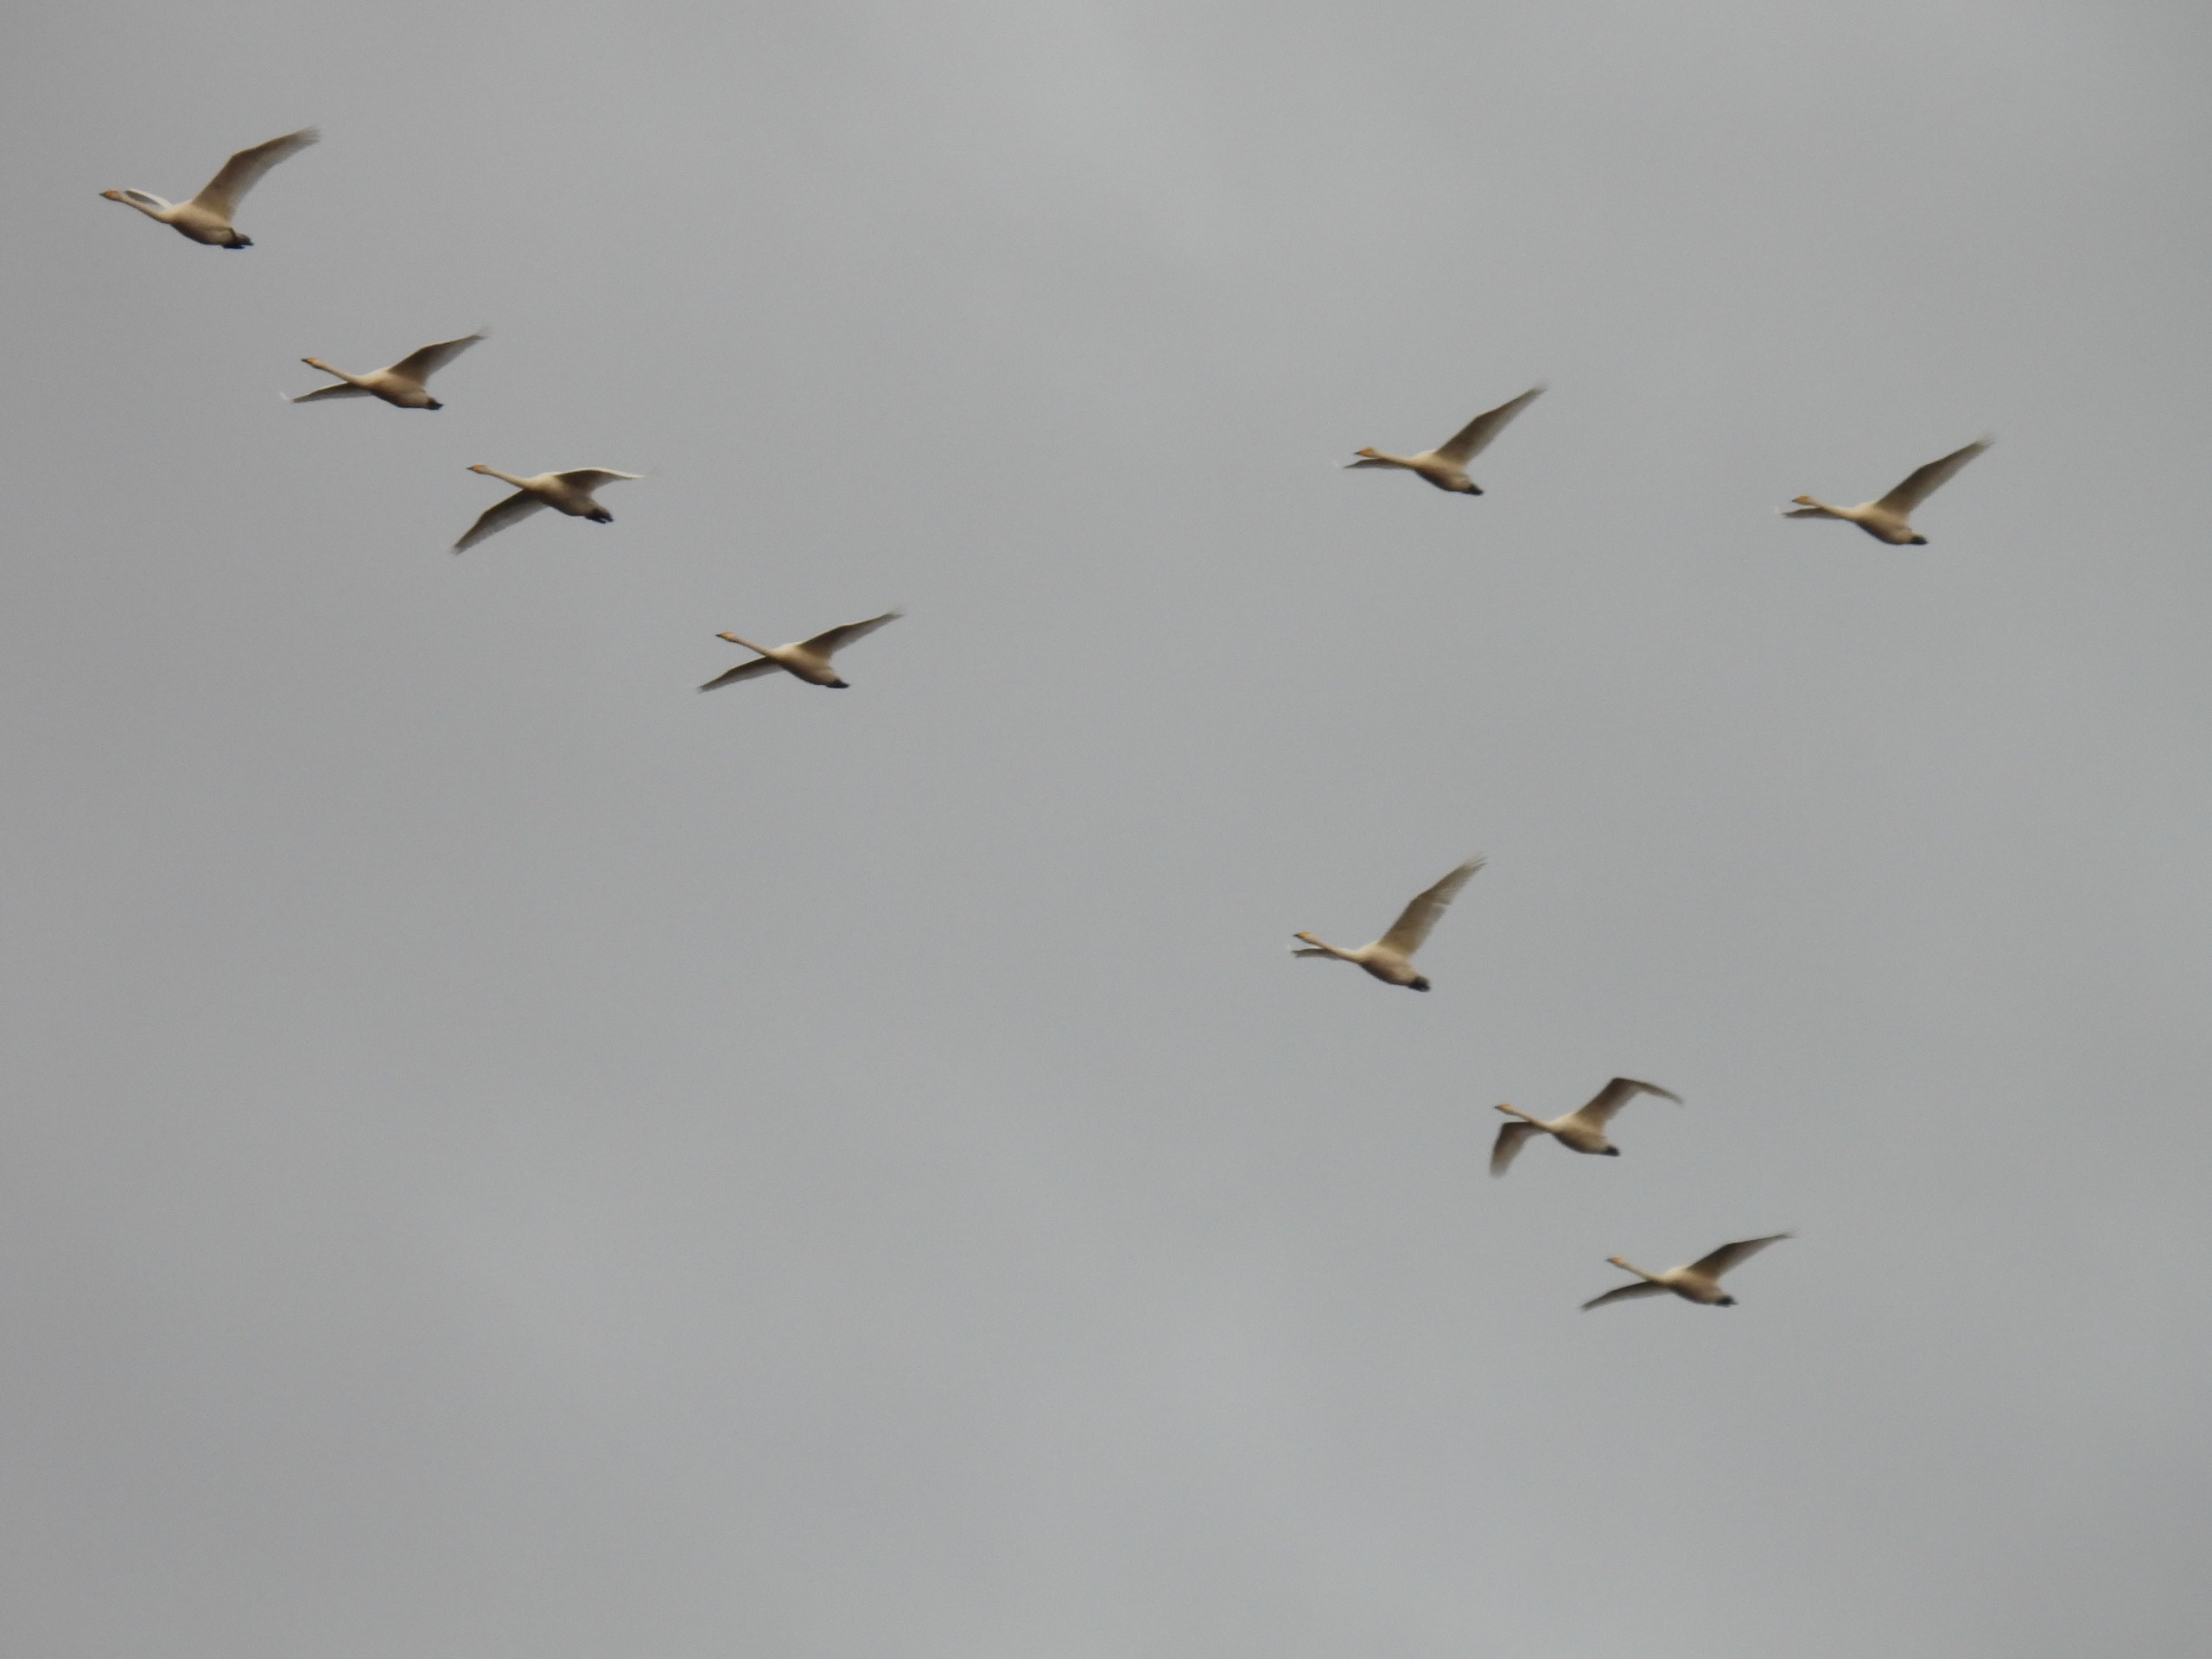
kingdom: Animalia
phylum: Chordata
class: Aves
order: Anseriformes
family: Anatidae
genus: Cygnus
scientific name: Cygnus cygnus
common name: Sangsvane
